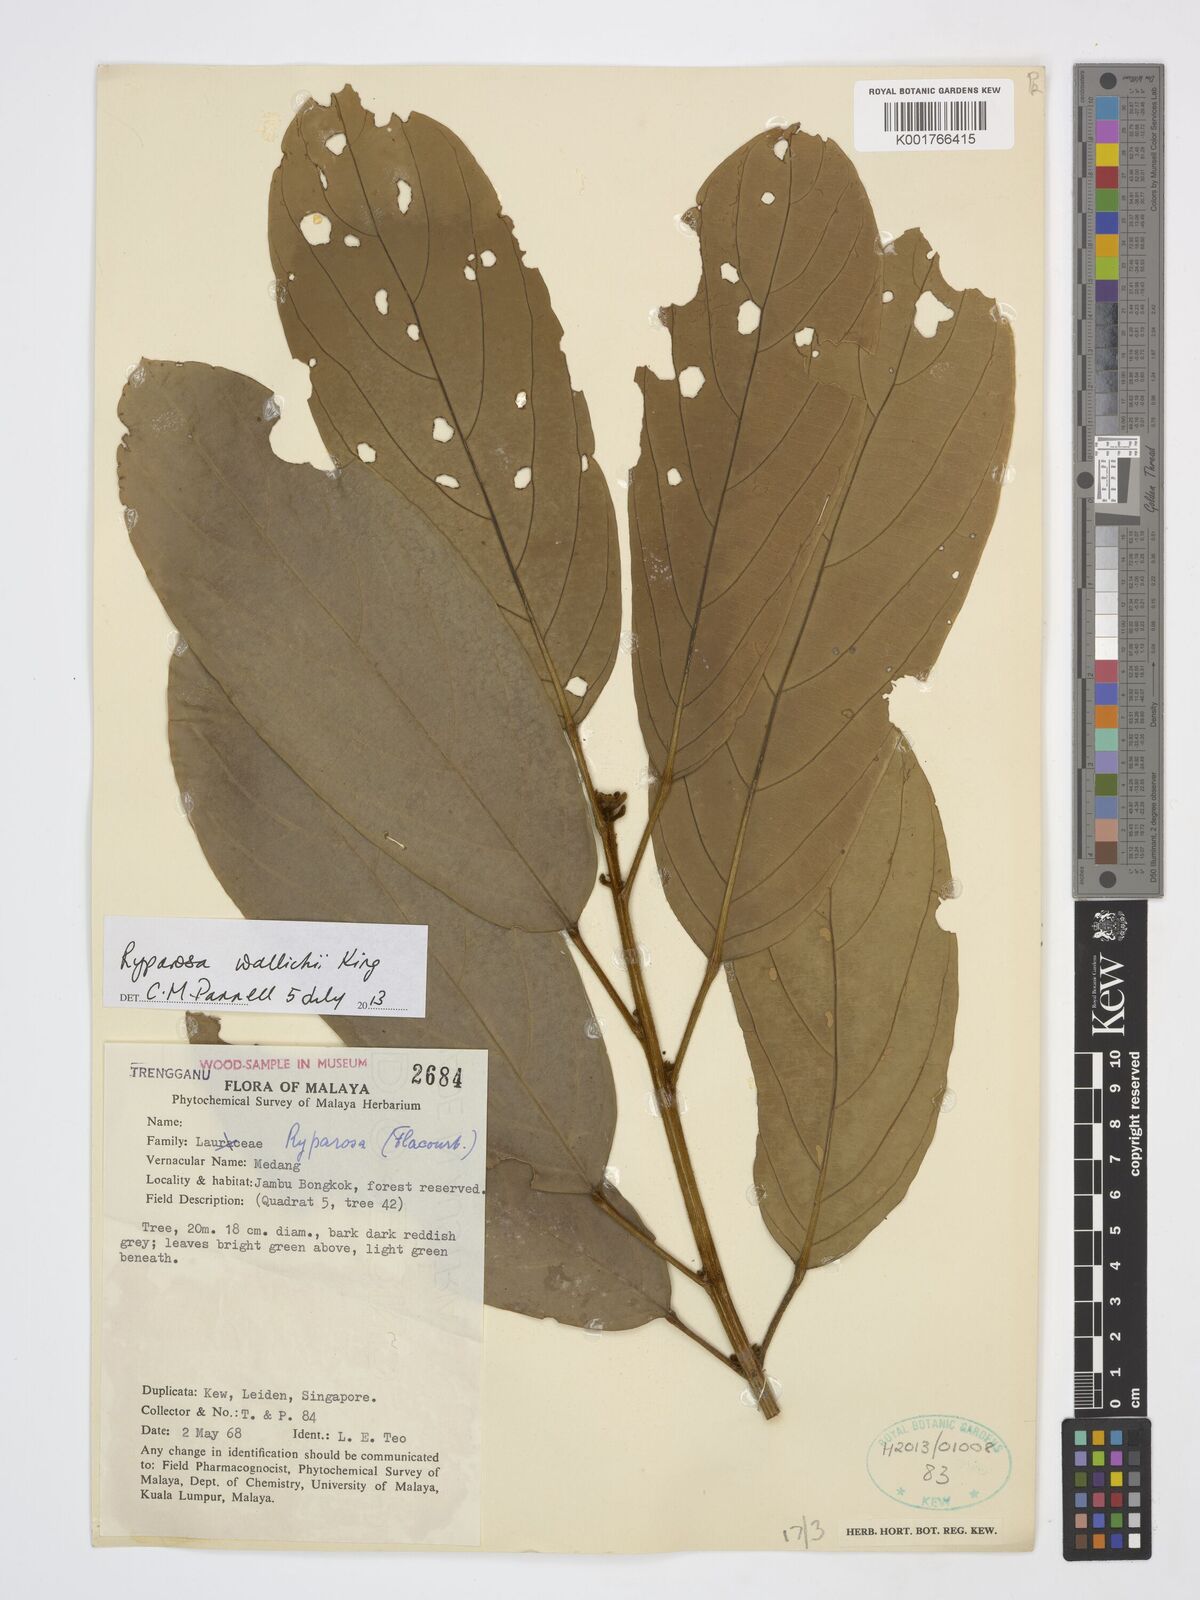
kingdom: Plantae
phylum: Tracheophyta
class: Magnoliopsida
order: Malpighiales
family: Achariaceae
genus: Ryparosa
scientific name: Ryparosa wallichii
